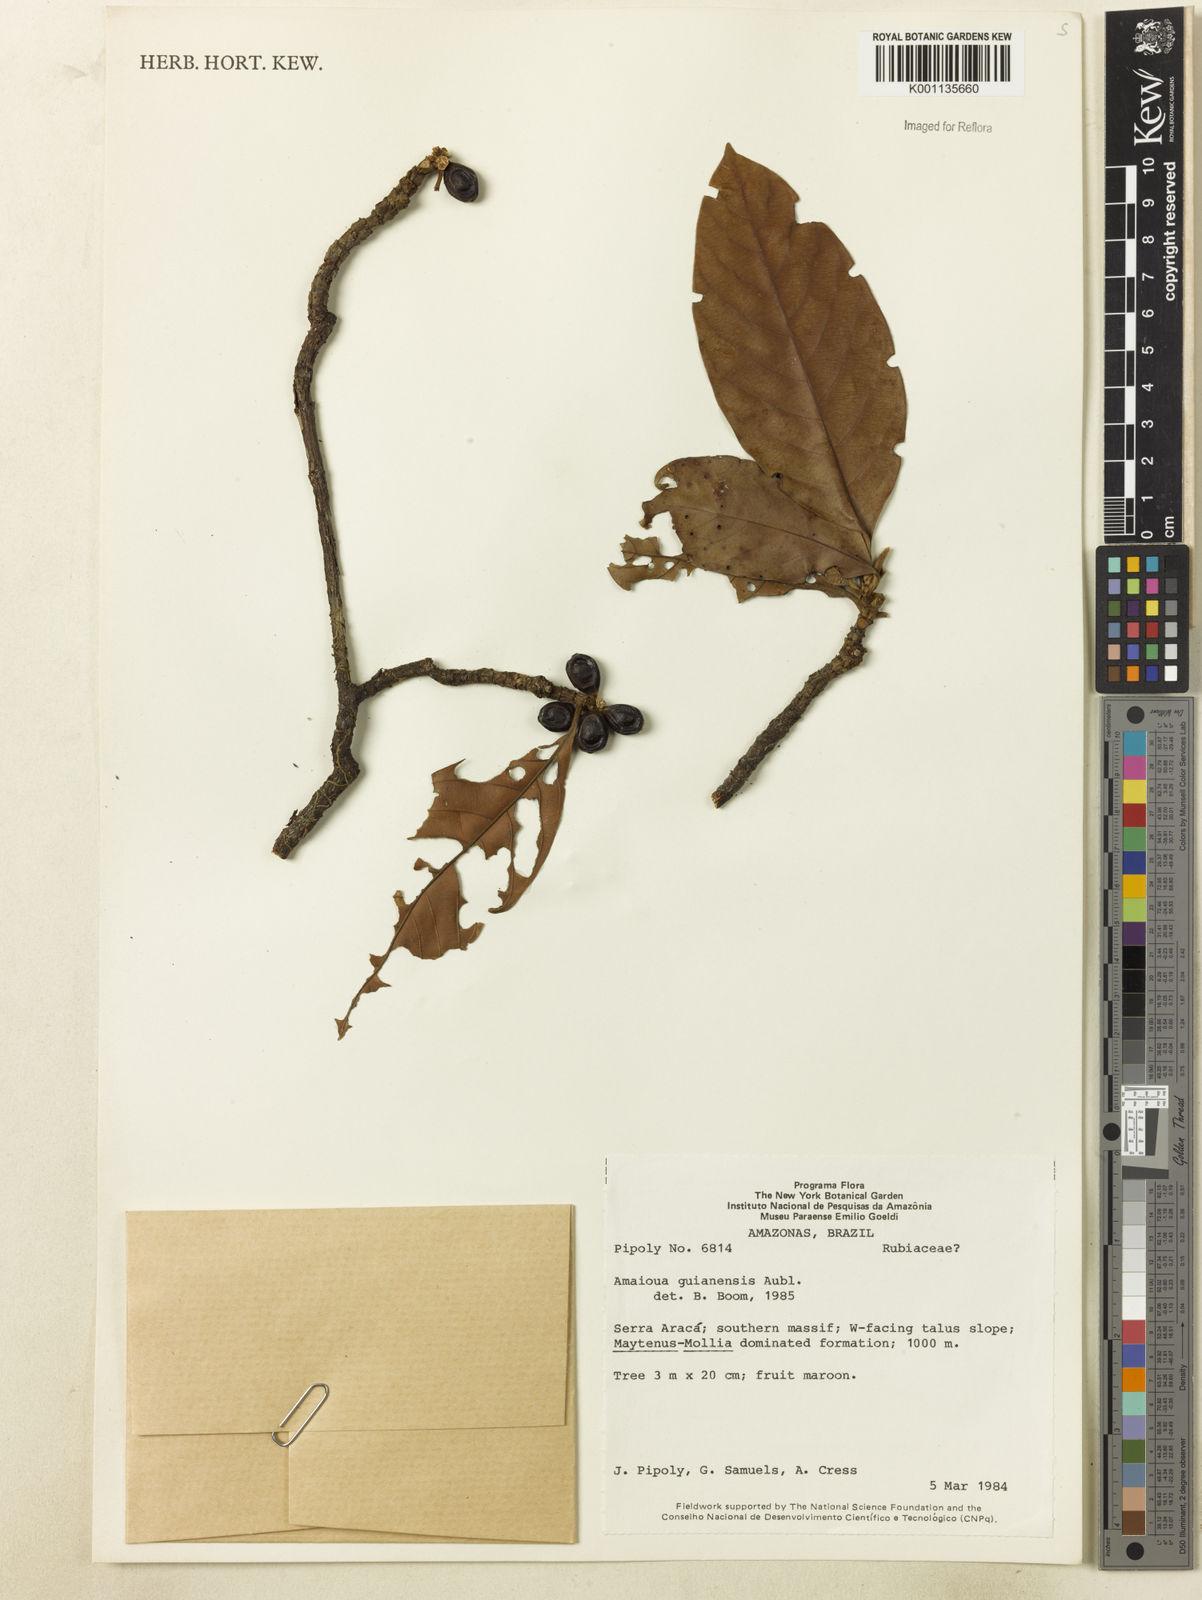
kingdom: Plantae
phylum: Tracheophyta
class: Magnoliopsida
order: Gentianales
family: Rubiaceae
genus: Amaioua
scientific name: Amaioua guianensis
